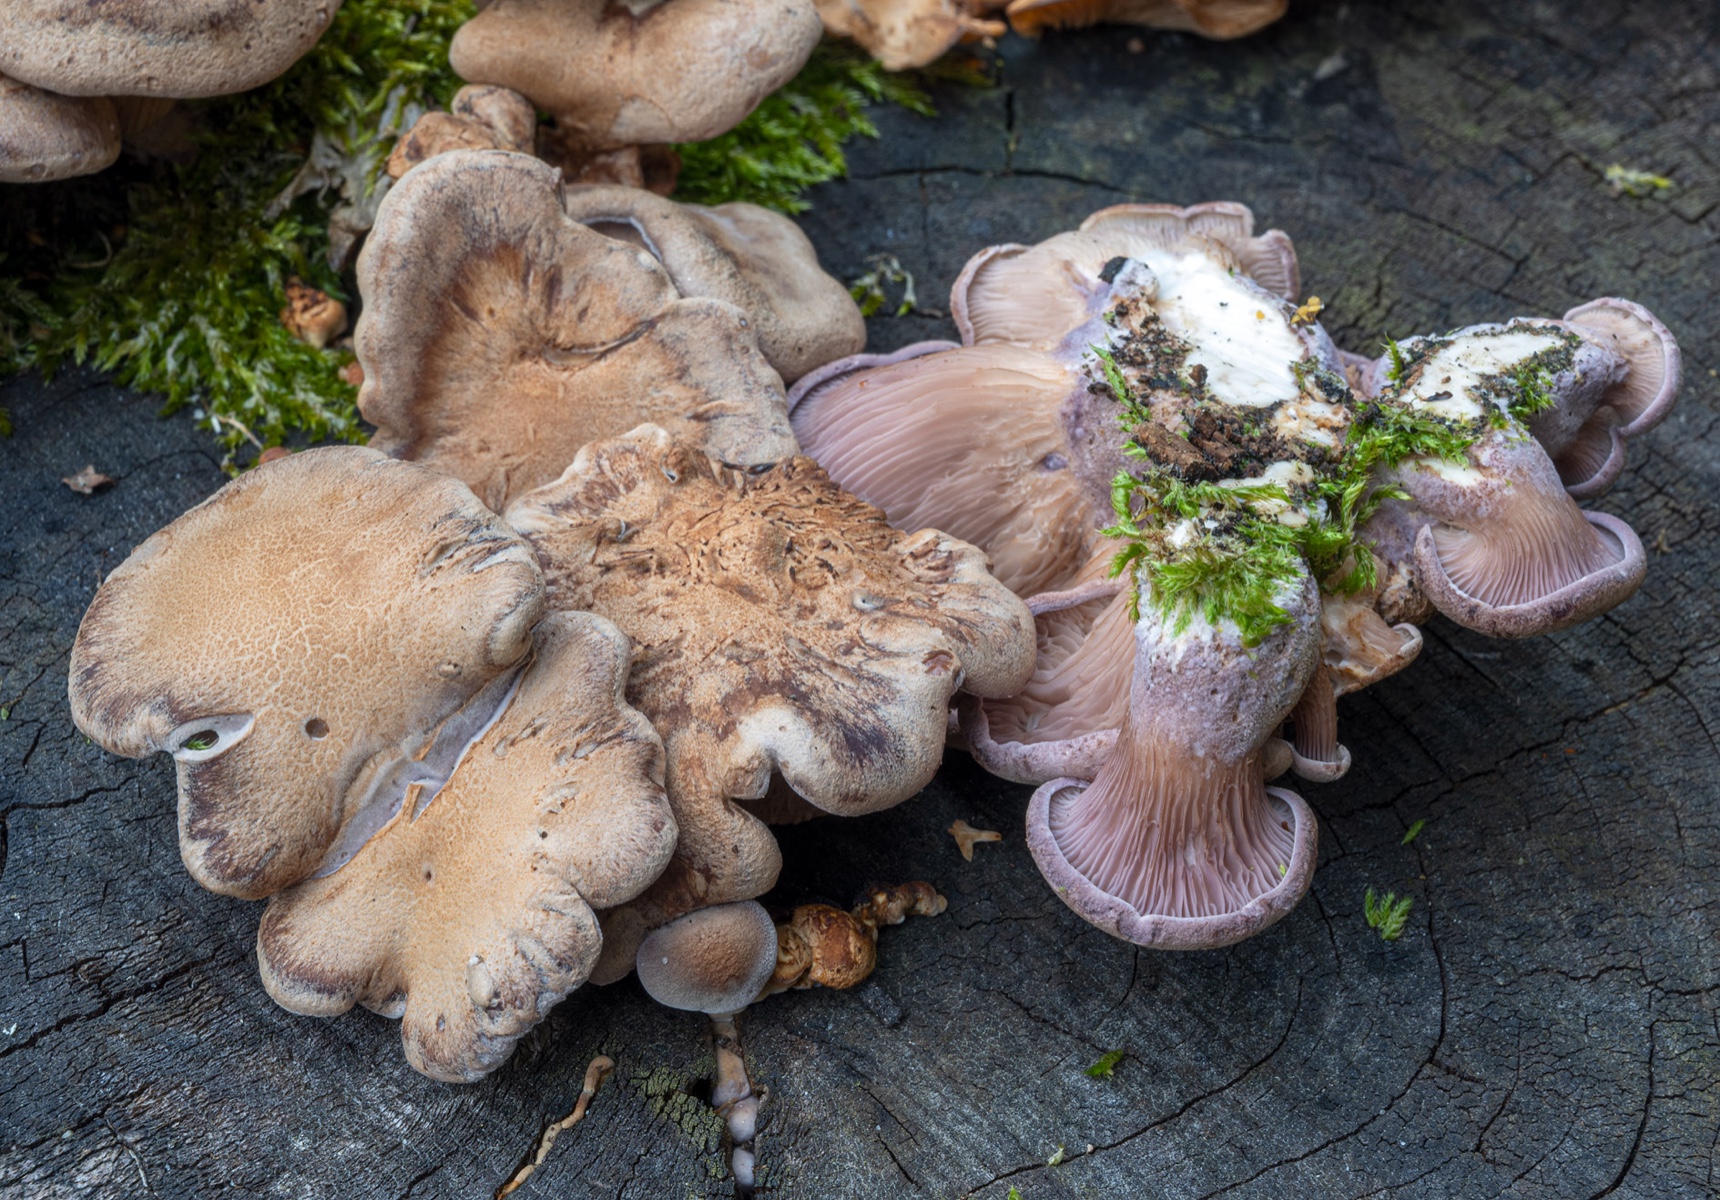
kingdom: Fungi
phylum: Basidiomycota
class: Agaricomycetes
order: Polyporales
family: Panaceae
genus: Panus
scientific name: Panus conchatus
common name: filtstokket læderhat
